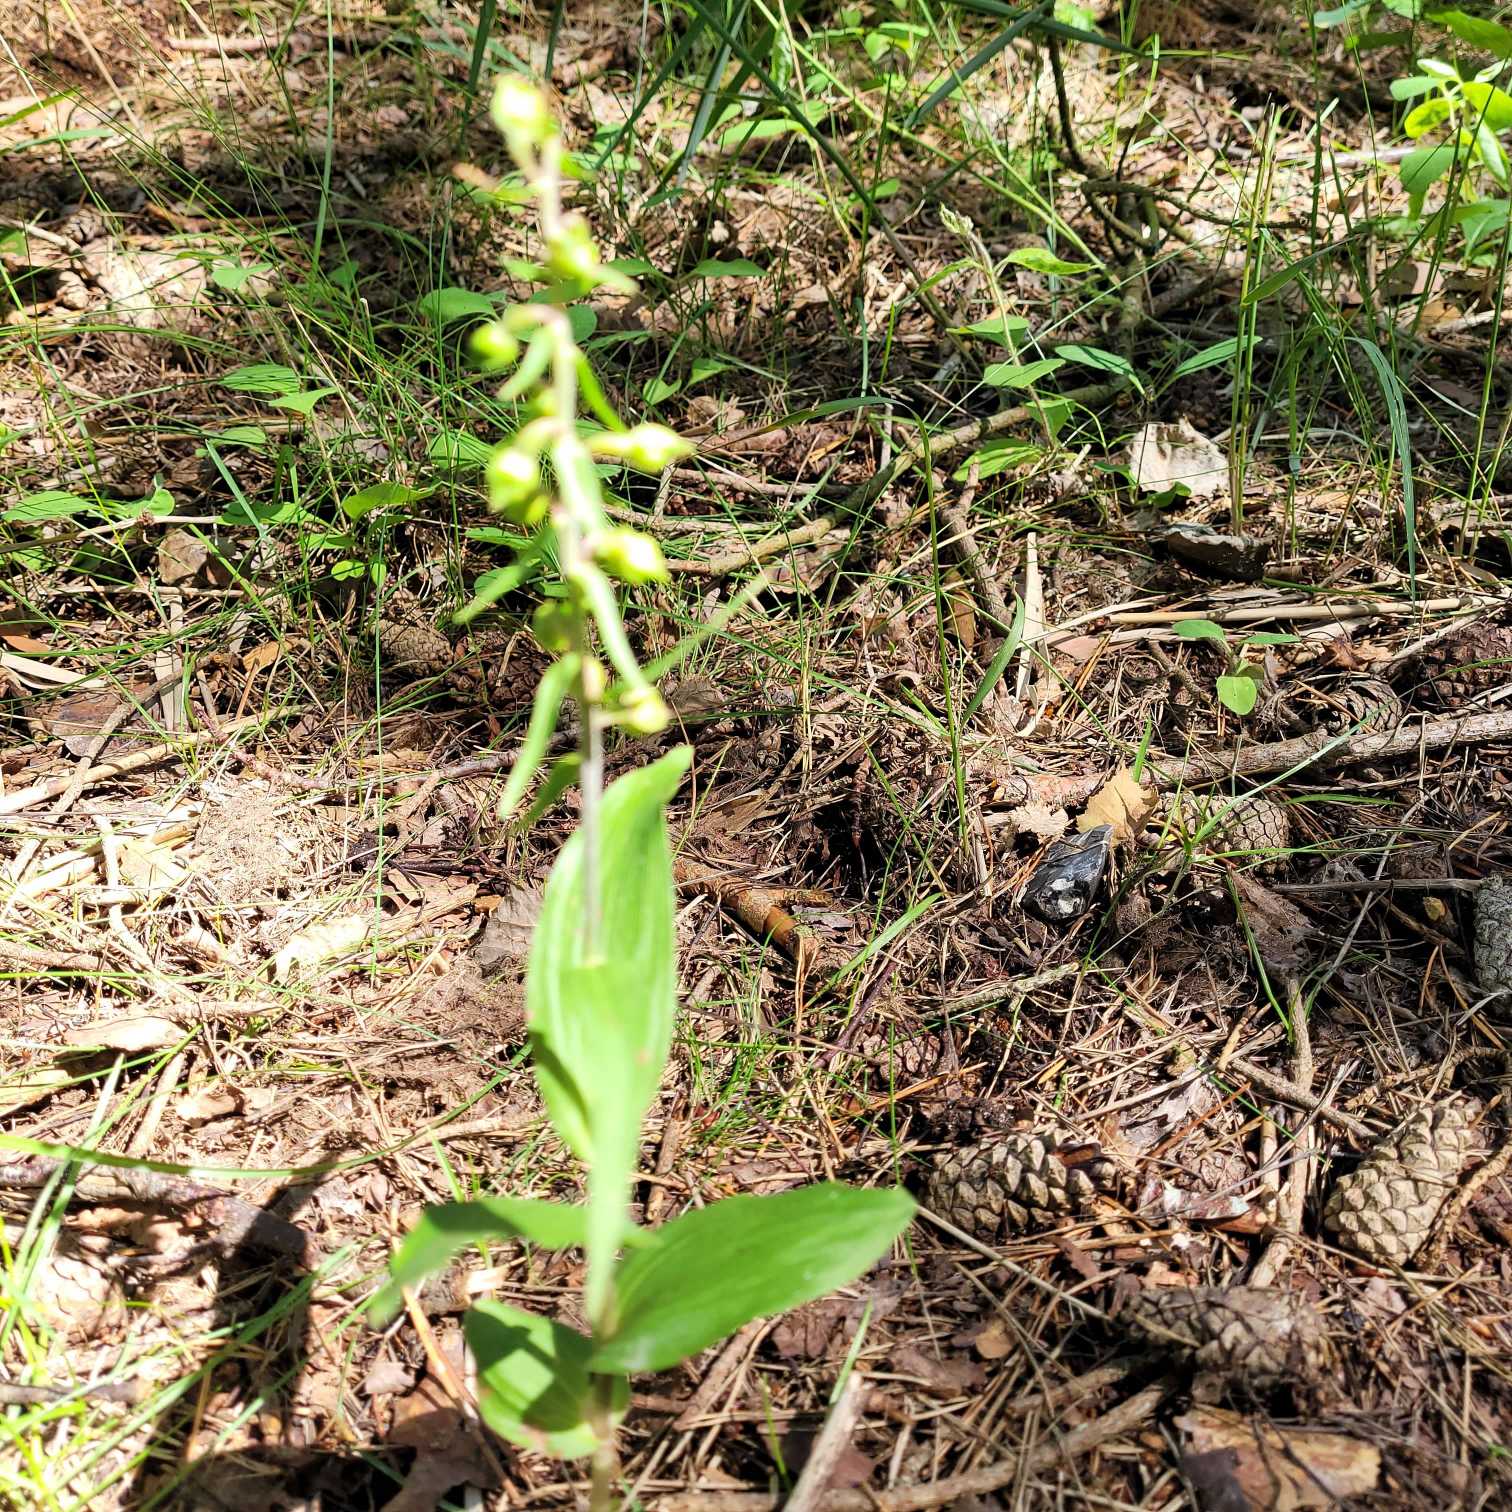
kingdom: Plantae
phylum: Tracheophyta
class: Liliopsida
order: Asparagales
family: Orchidaceae
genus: Epipactis
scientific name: Epipactis helleborine
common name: Skov-hullæbe
